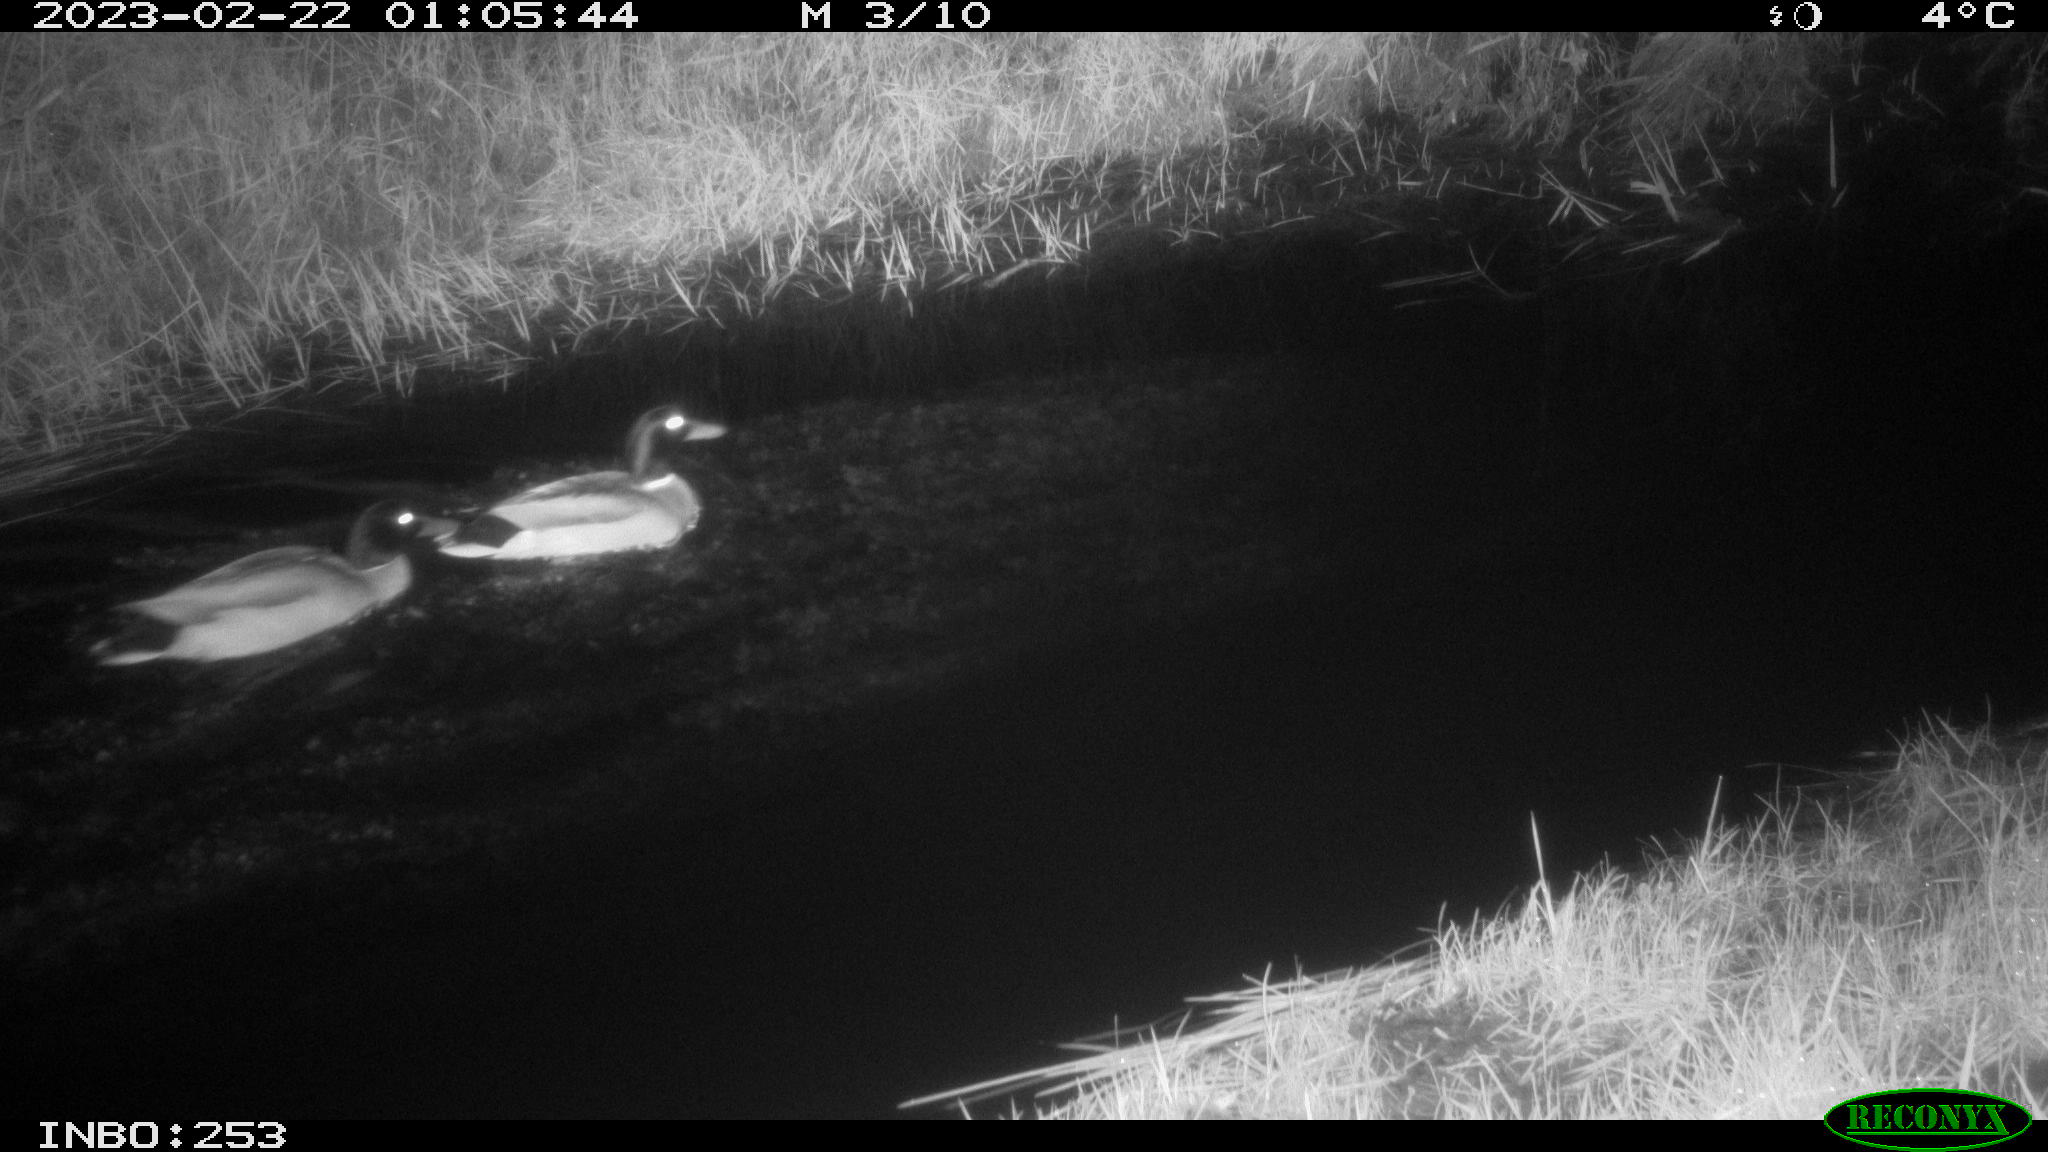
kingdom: Animalia
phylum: Chordata
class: Aves
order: Anseriformes
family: Anatidae
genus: Anas
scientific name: Anas
